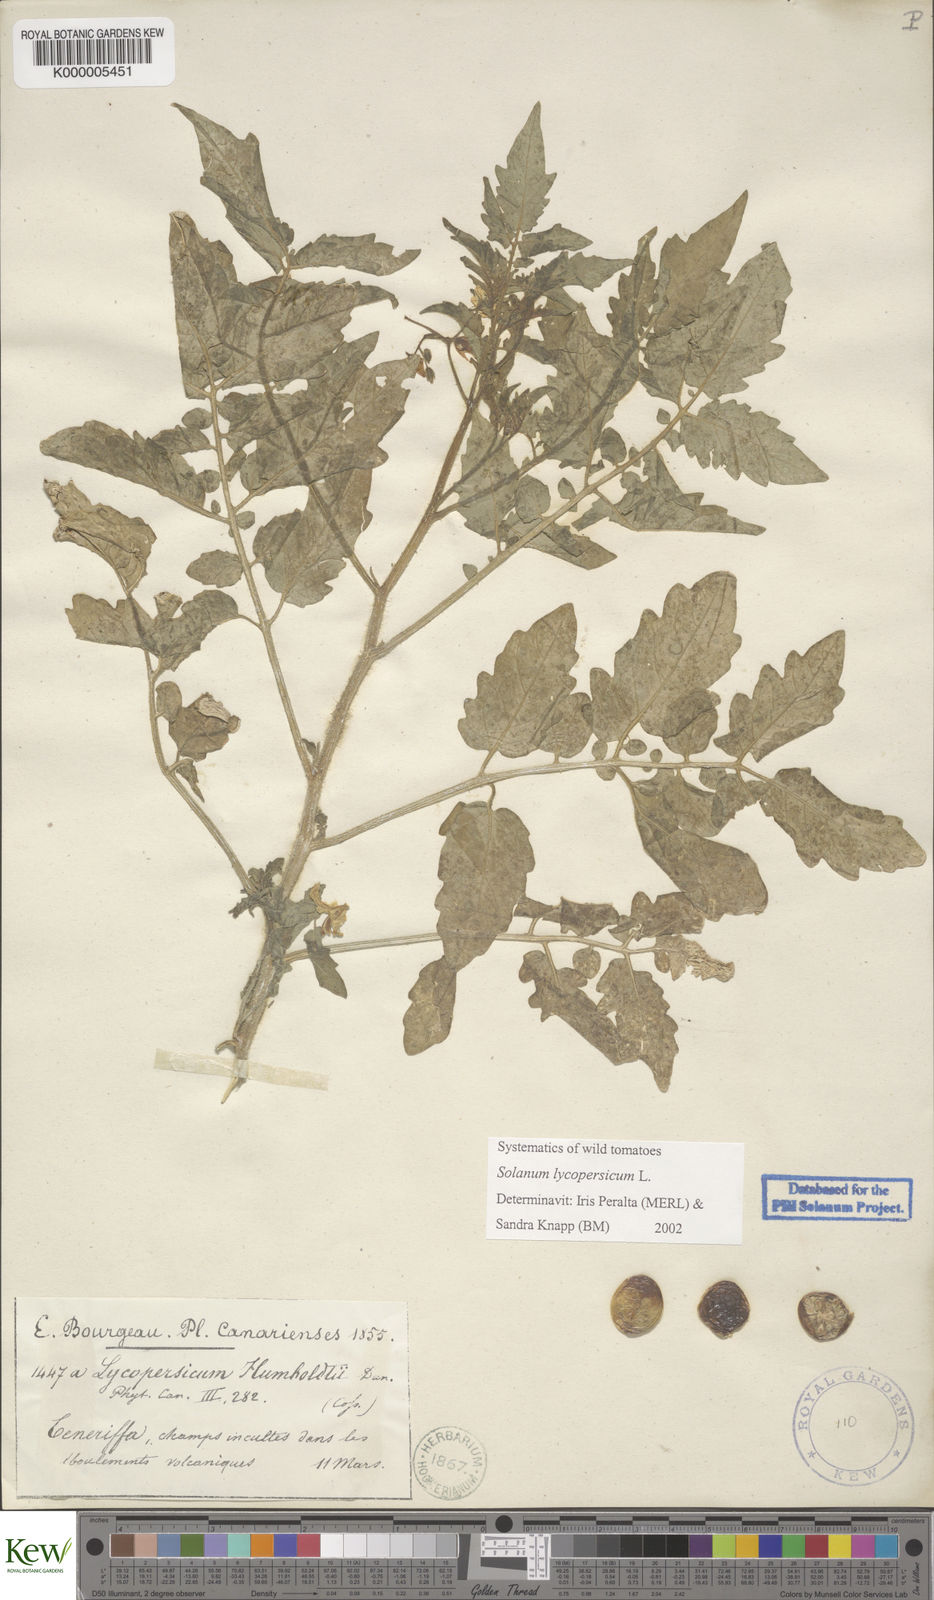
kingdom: Plantae
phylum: Tracheophyta
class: Magnoliopsida
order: Solanales
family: Solanaceae
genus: Solanum
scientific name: Solanum lycopersicum
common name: Garden tomato
